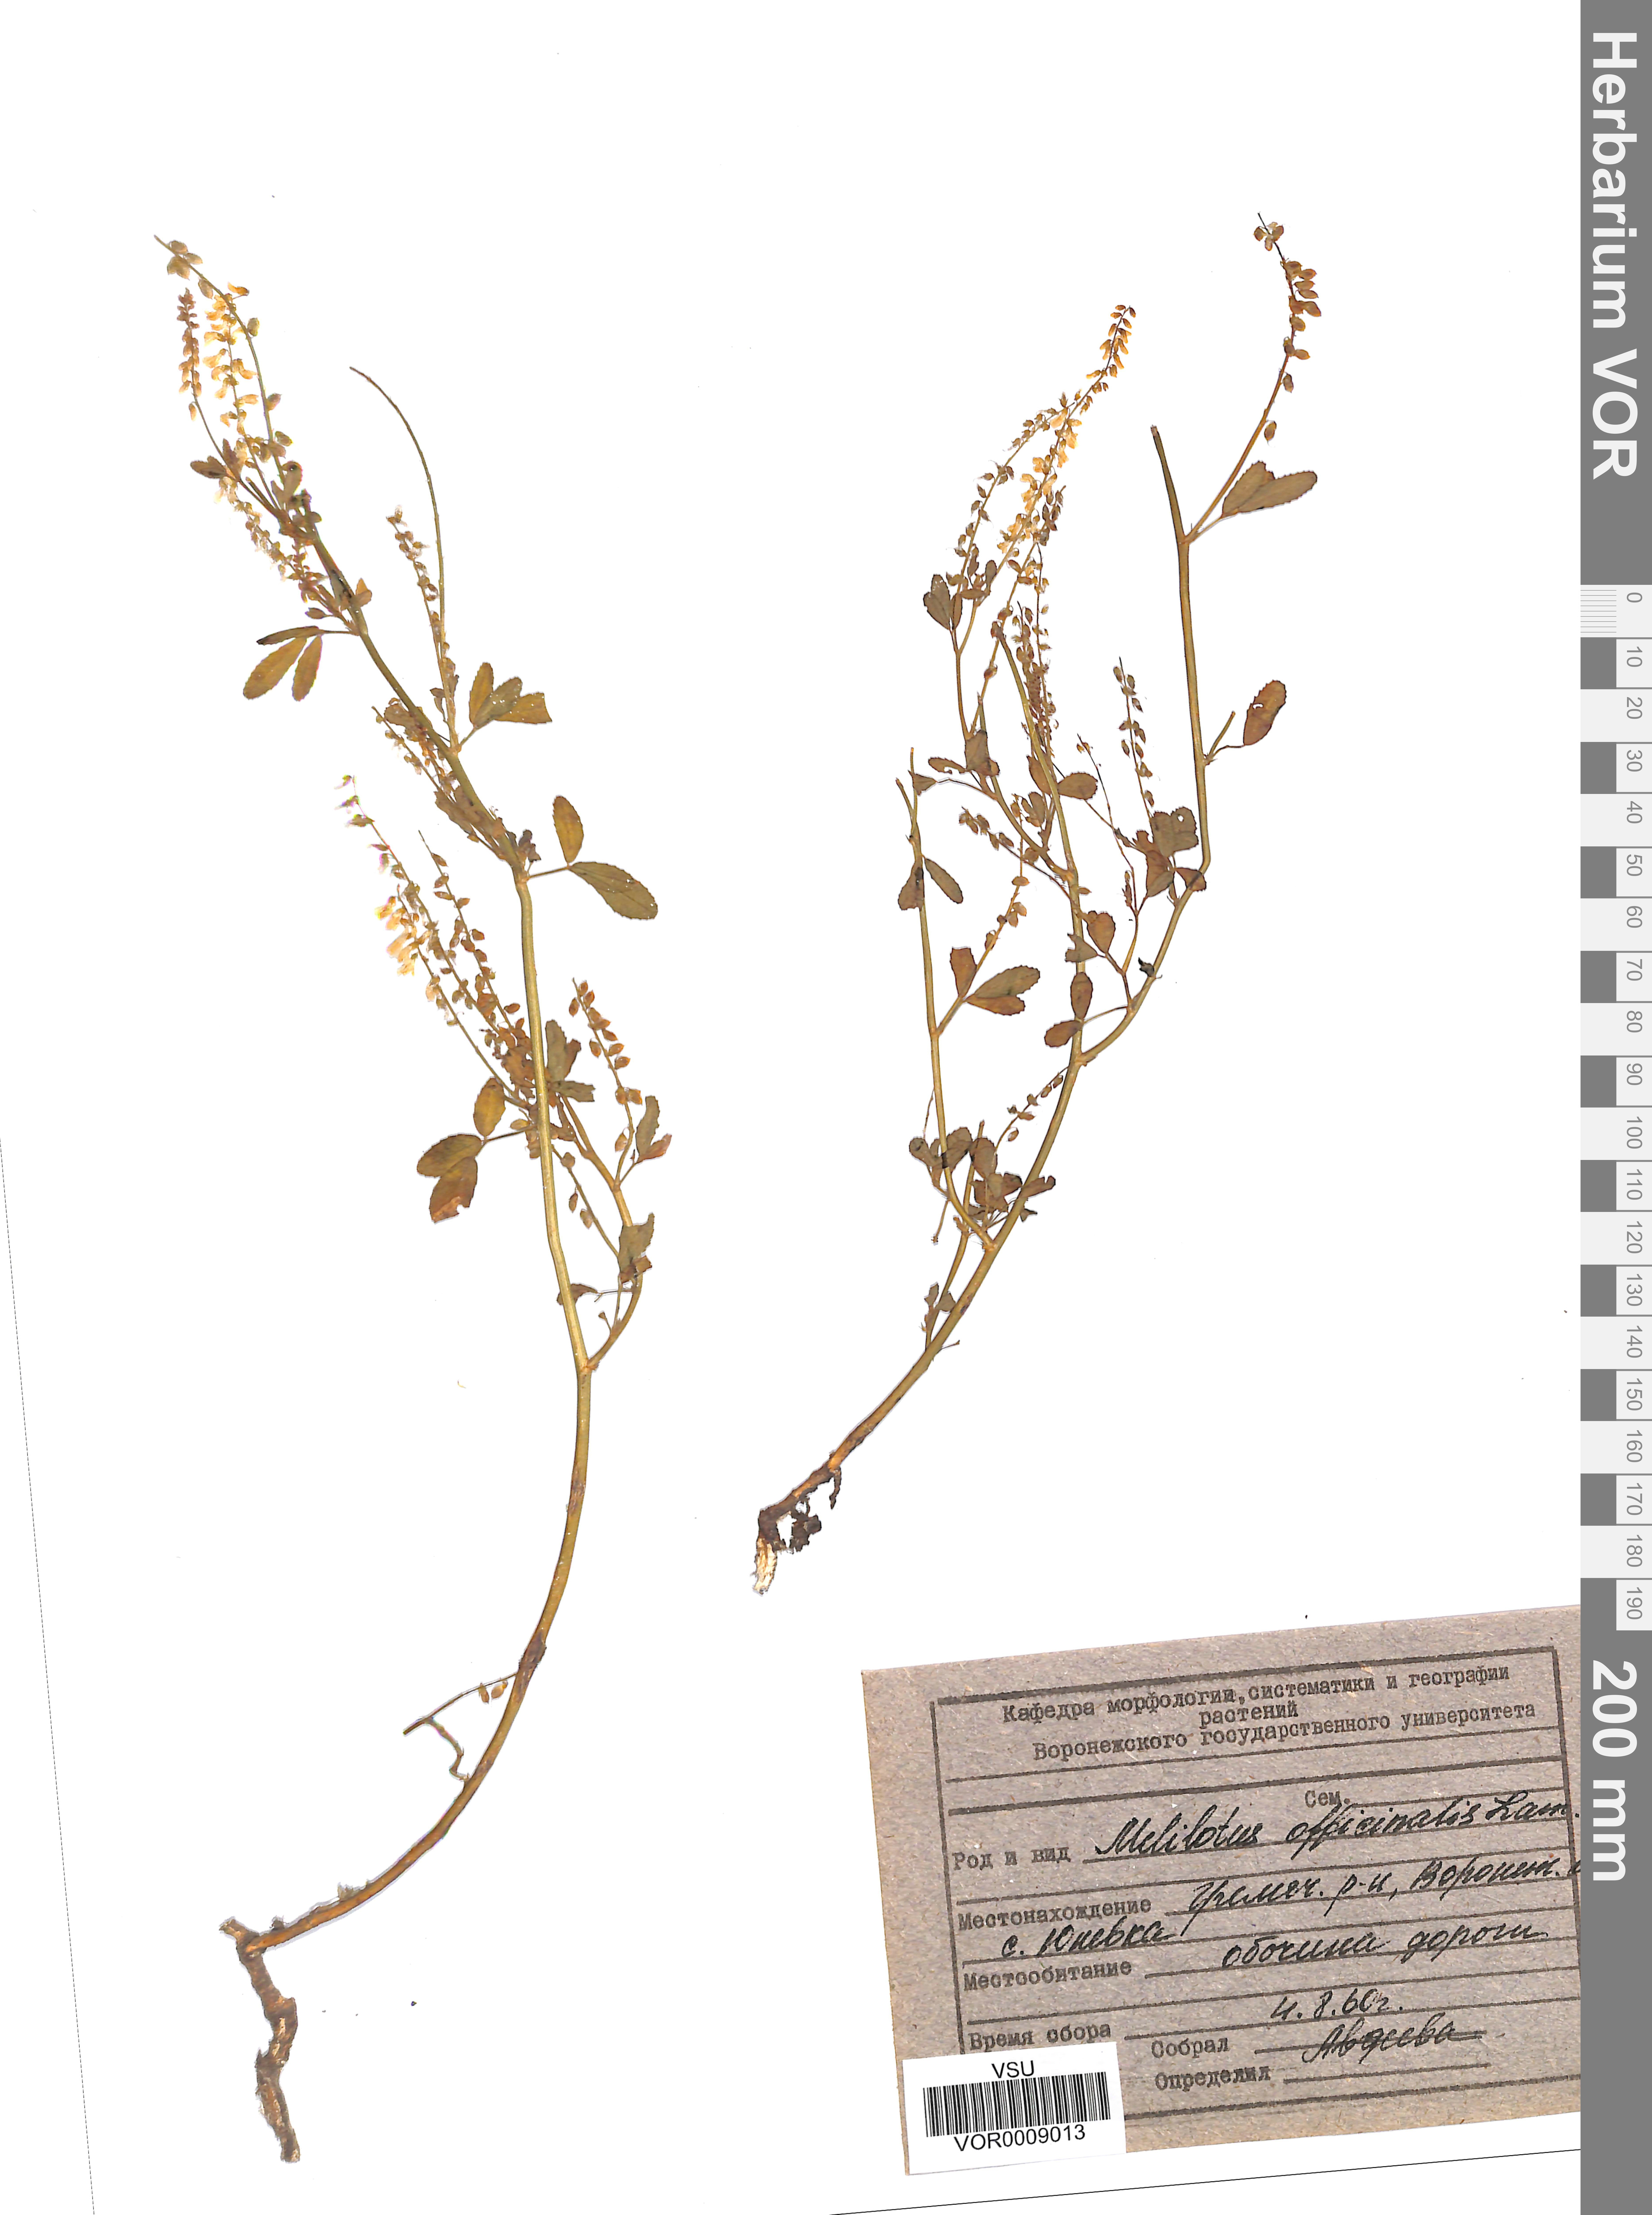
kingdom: Plantae
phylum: Tracheophyta
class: Magnoliopsida
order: Fabales
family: Fabaceae
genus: Melilotus
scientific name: Melilotus officinalis
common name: Sweetclover
